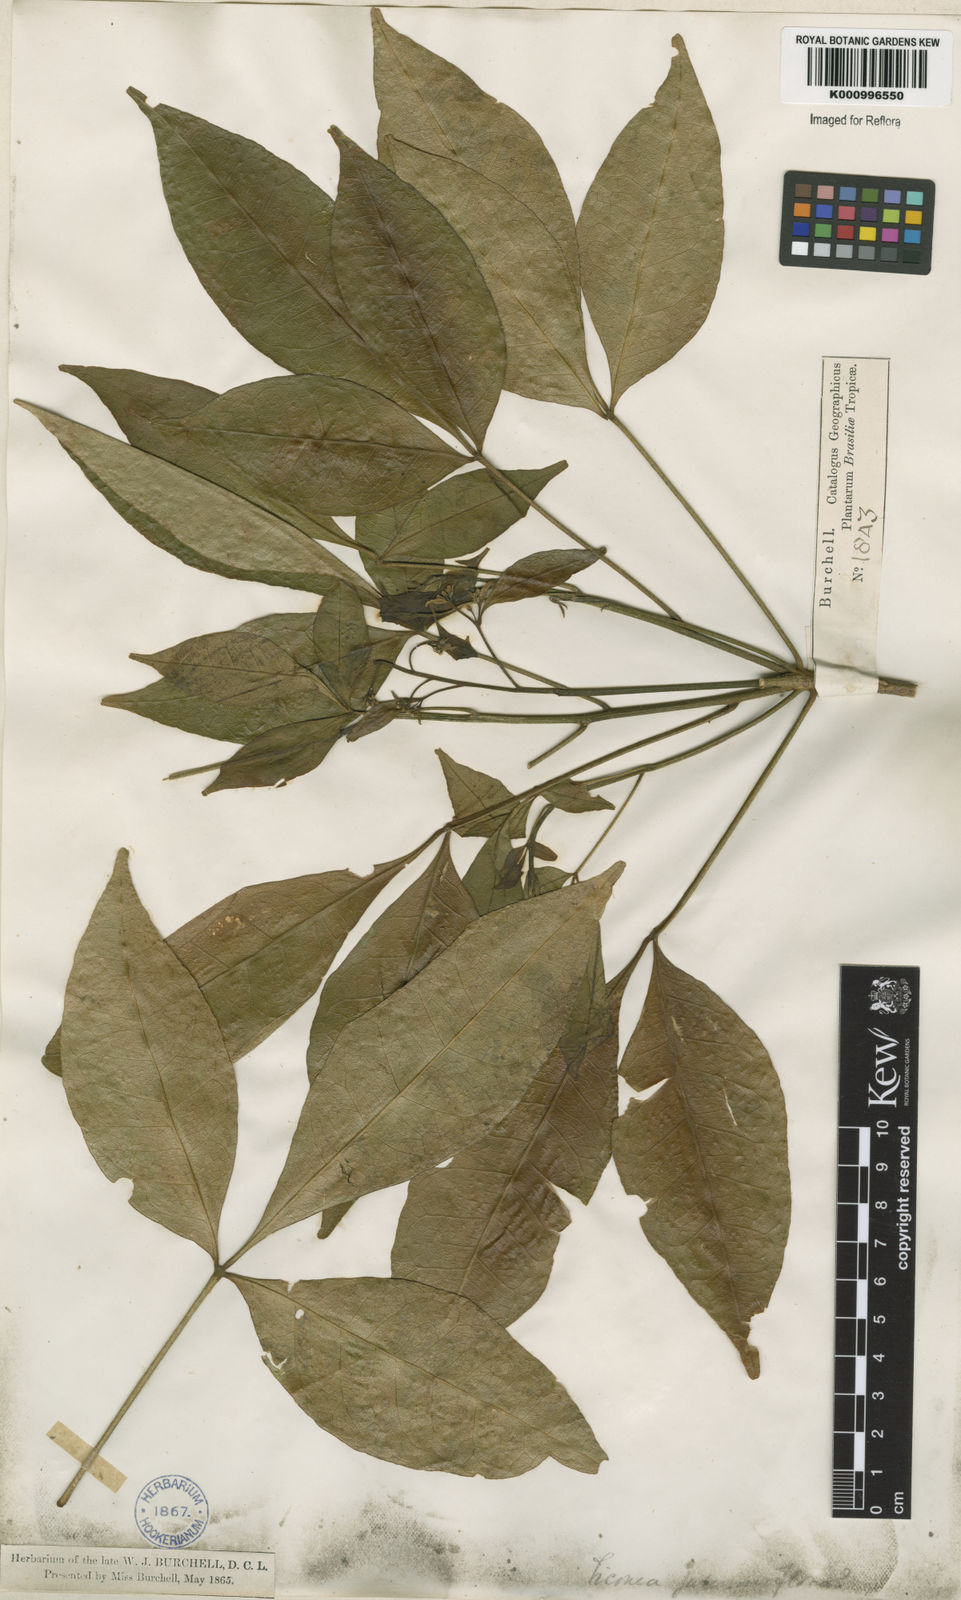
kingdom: Plantae
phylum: Tracheophyta
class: Magnoliopsida
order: Sapindales
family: Rutaceae
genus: Galipea
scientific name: Galipea
